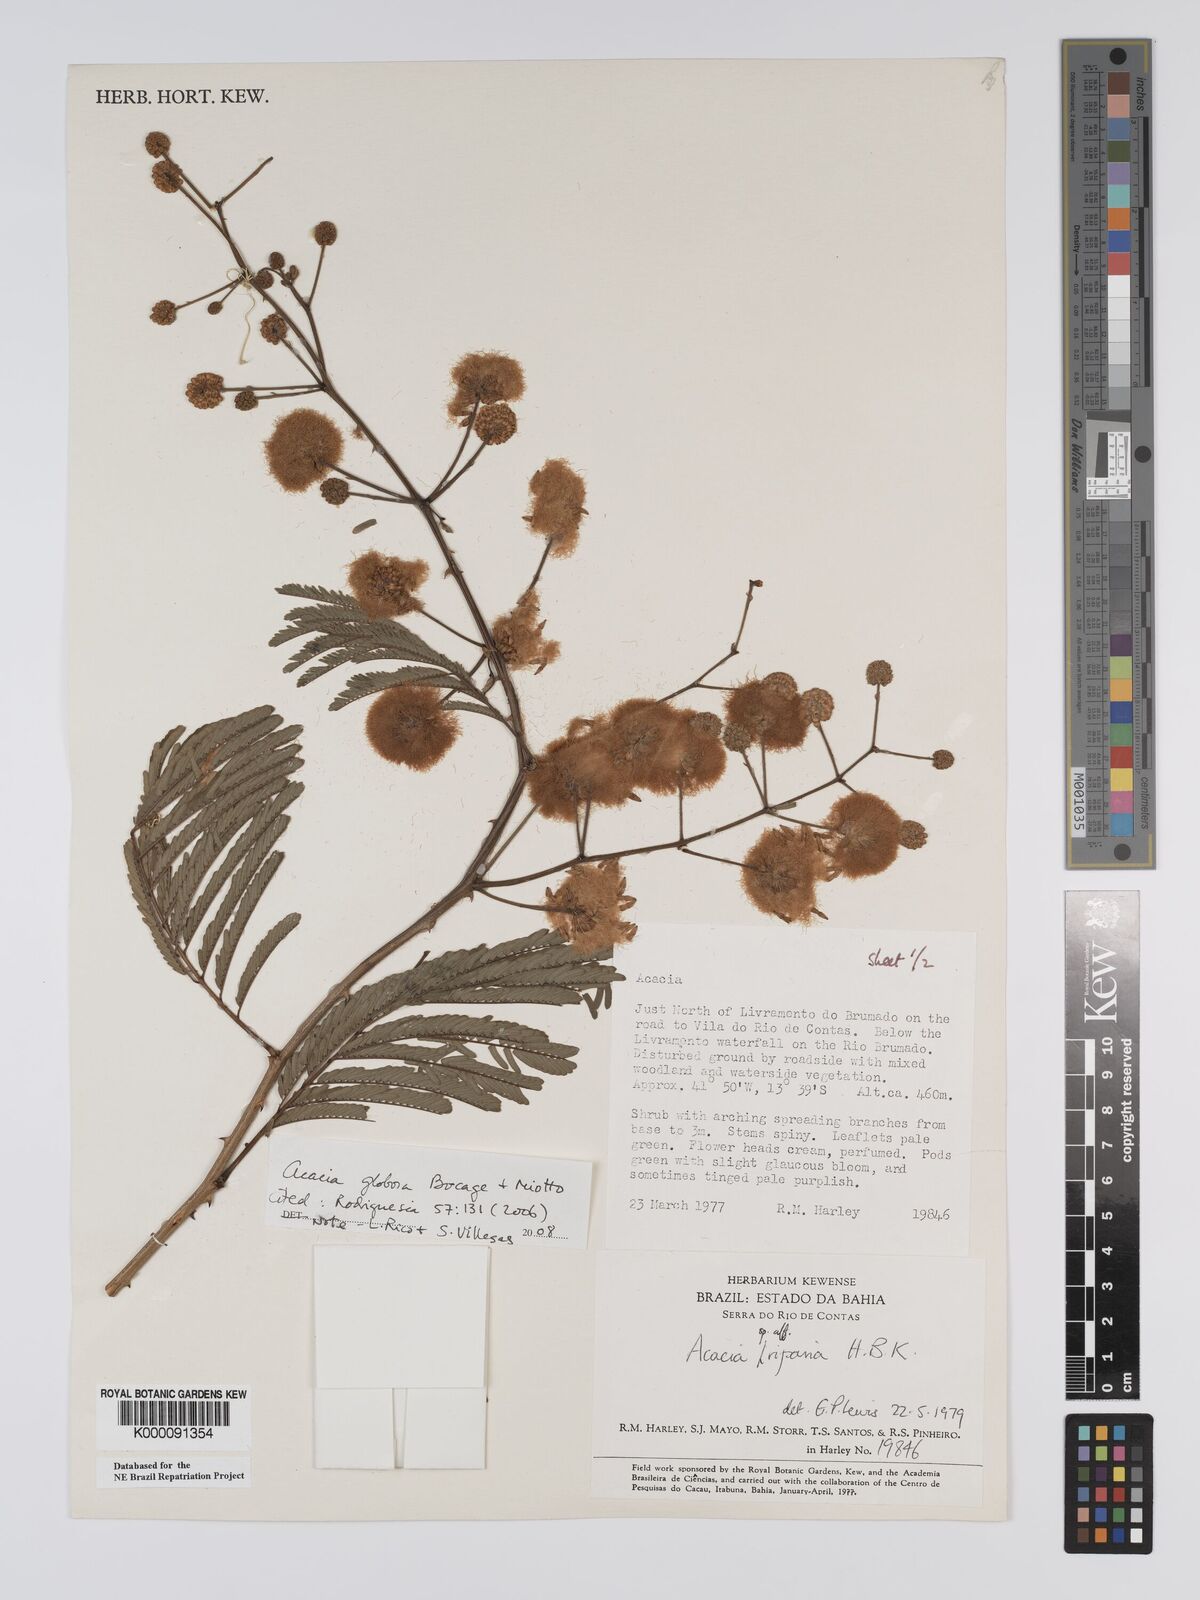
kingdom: Plantae
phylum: Tracheophyta
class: Magnoliopsida
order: Fabales
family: Fabaceae
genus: Senegalia
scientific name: Senegalia globosa
